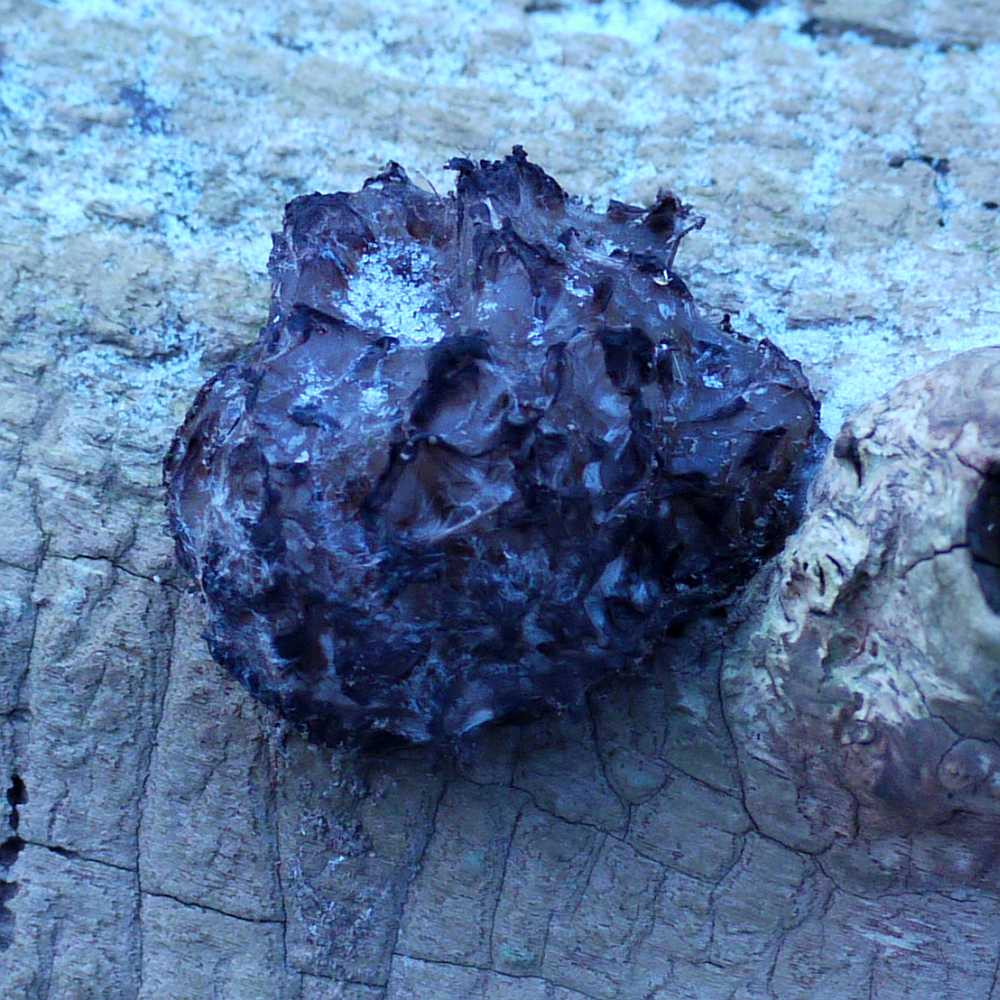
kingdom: Fungi
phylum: Basidiomycota
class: Tremellomycetes
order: Tremellales
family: Tremellaceae
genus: Phaeotremella
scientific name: Phaeotremella frondosa
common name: kæmpe-bævresvamp
